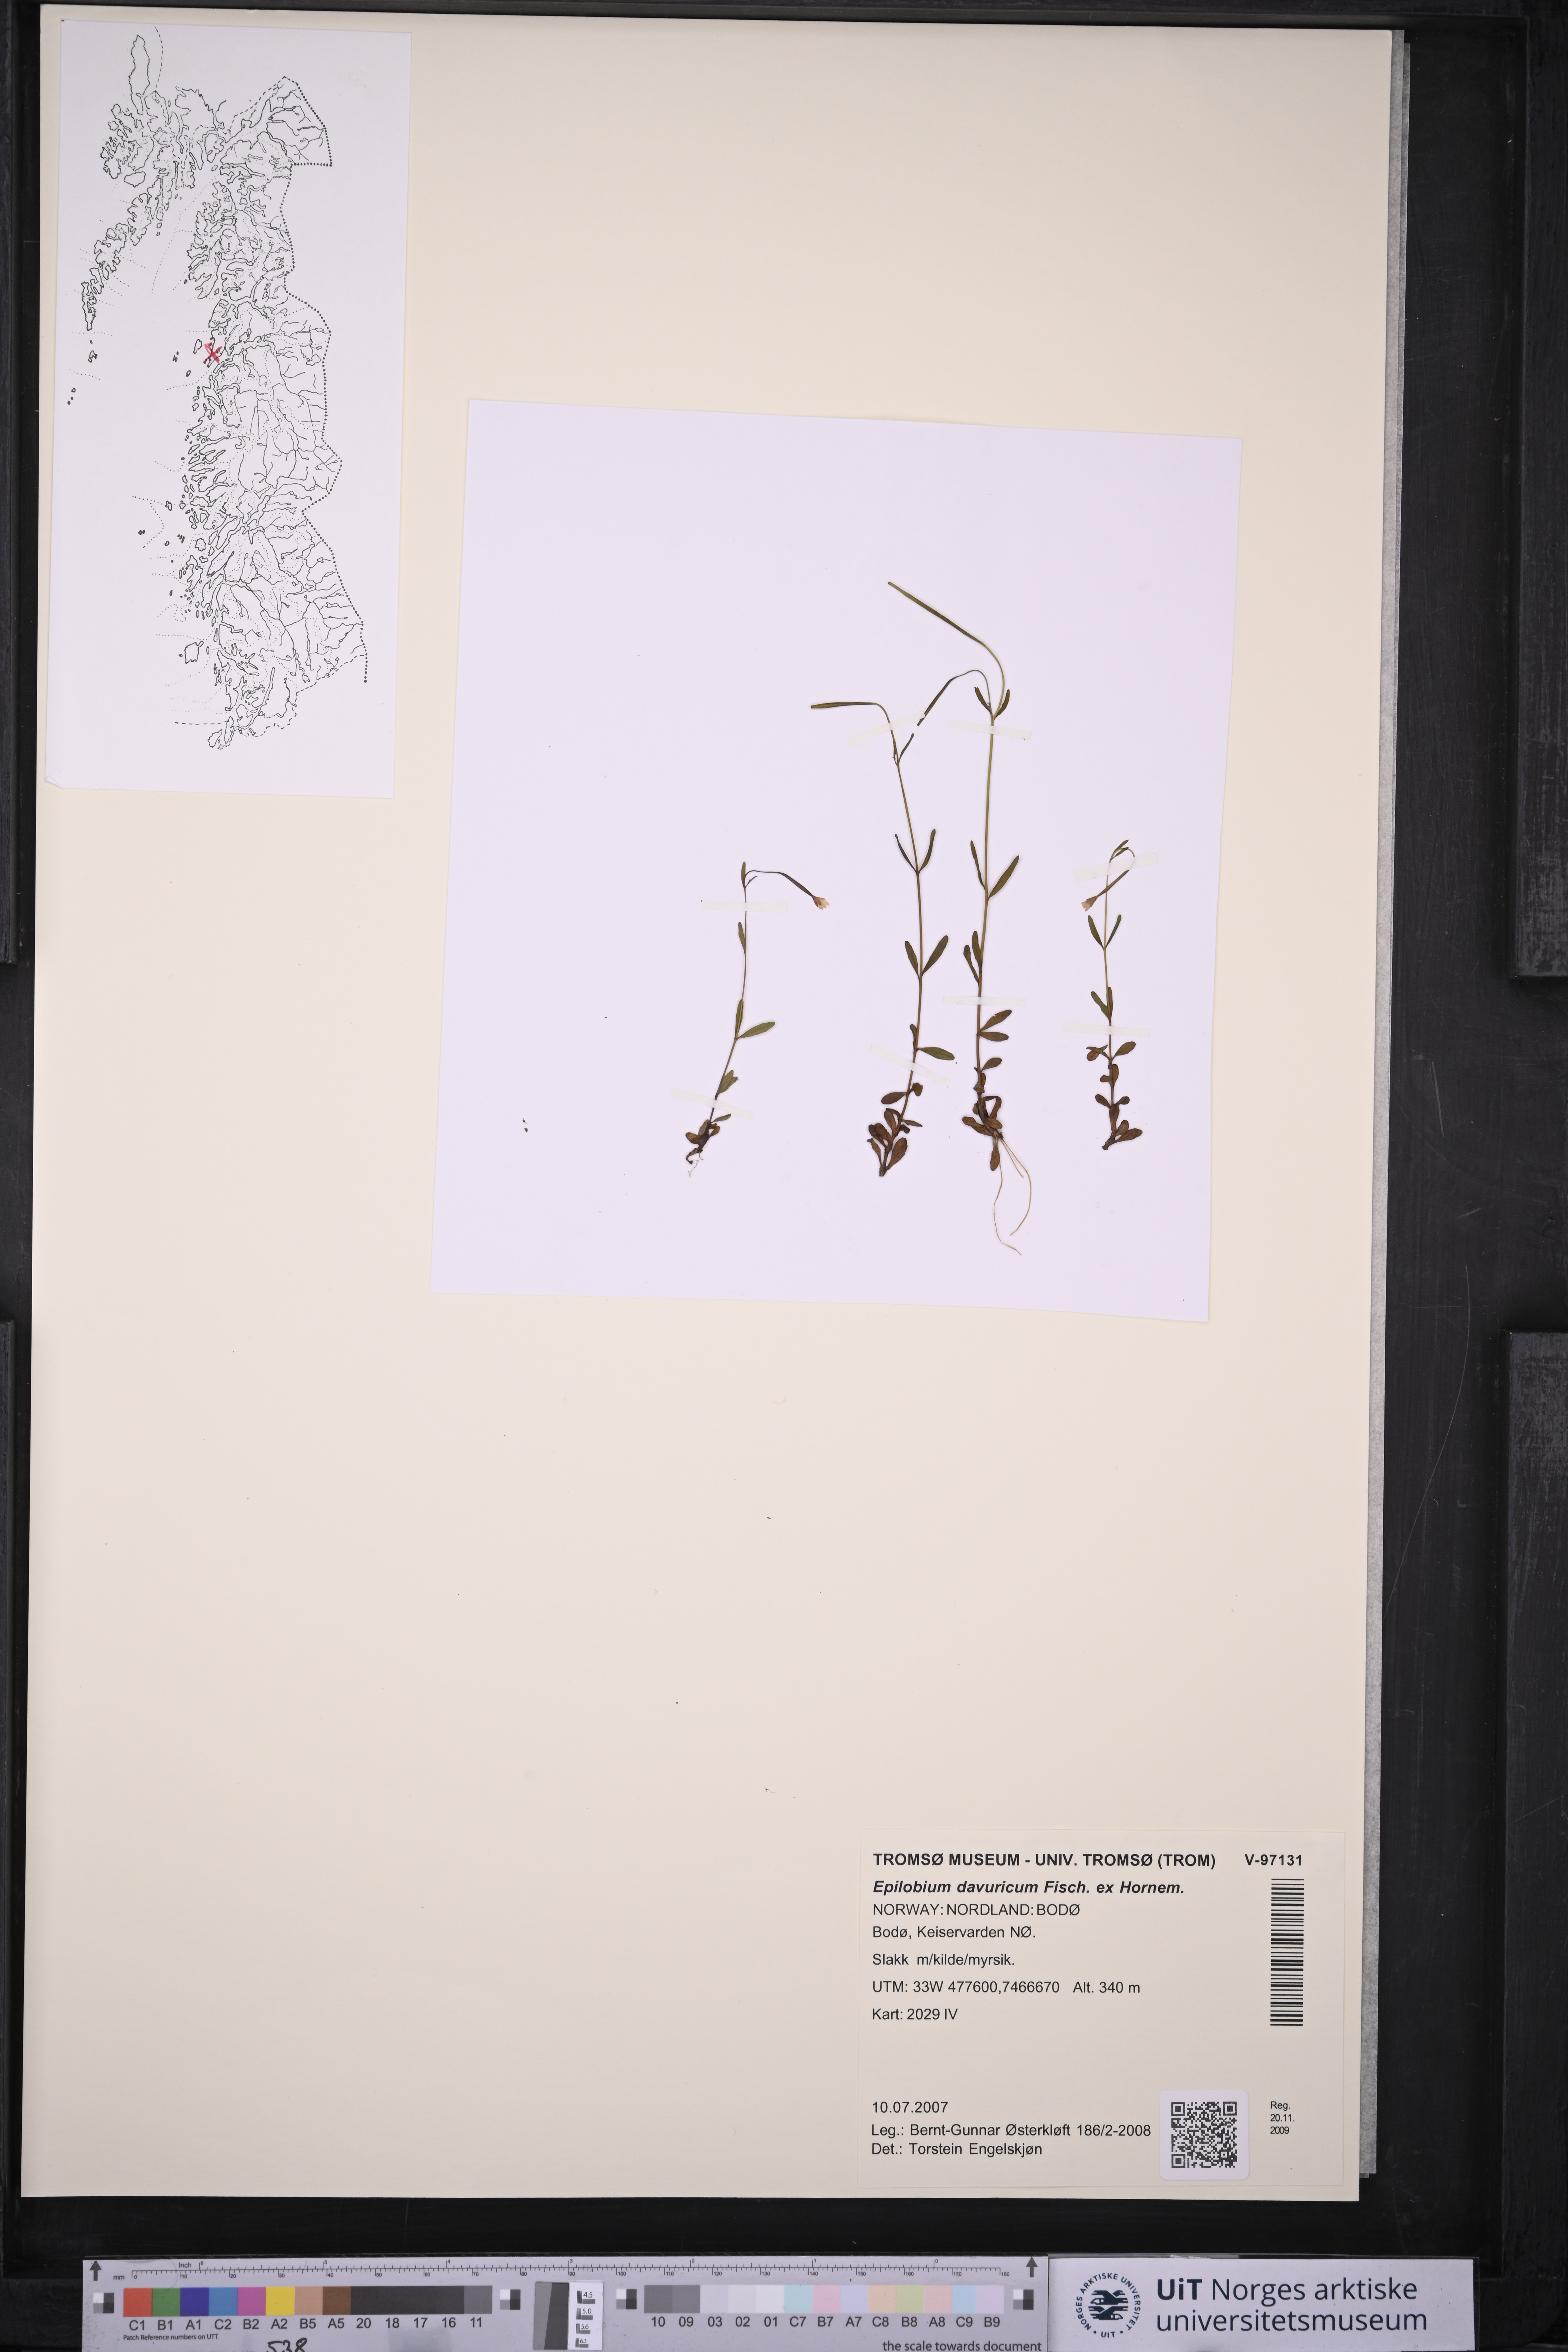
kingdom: Plantae
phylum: Tracheophyta
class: Magnoliopsida
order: Myrtales
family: Onagraceae
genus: Epilobium
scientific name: Epilobium davuricum
